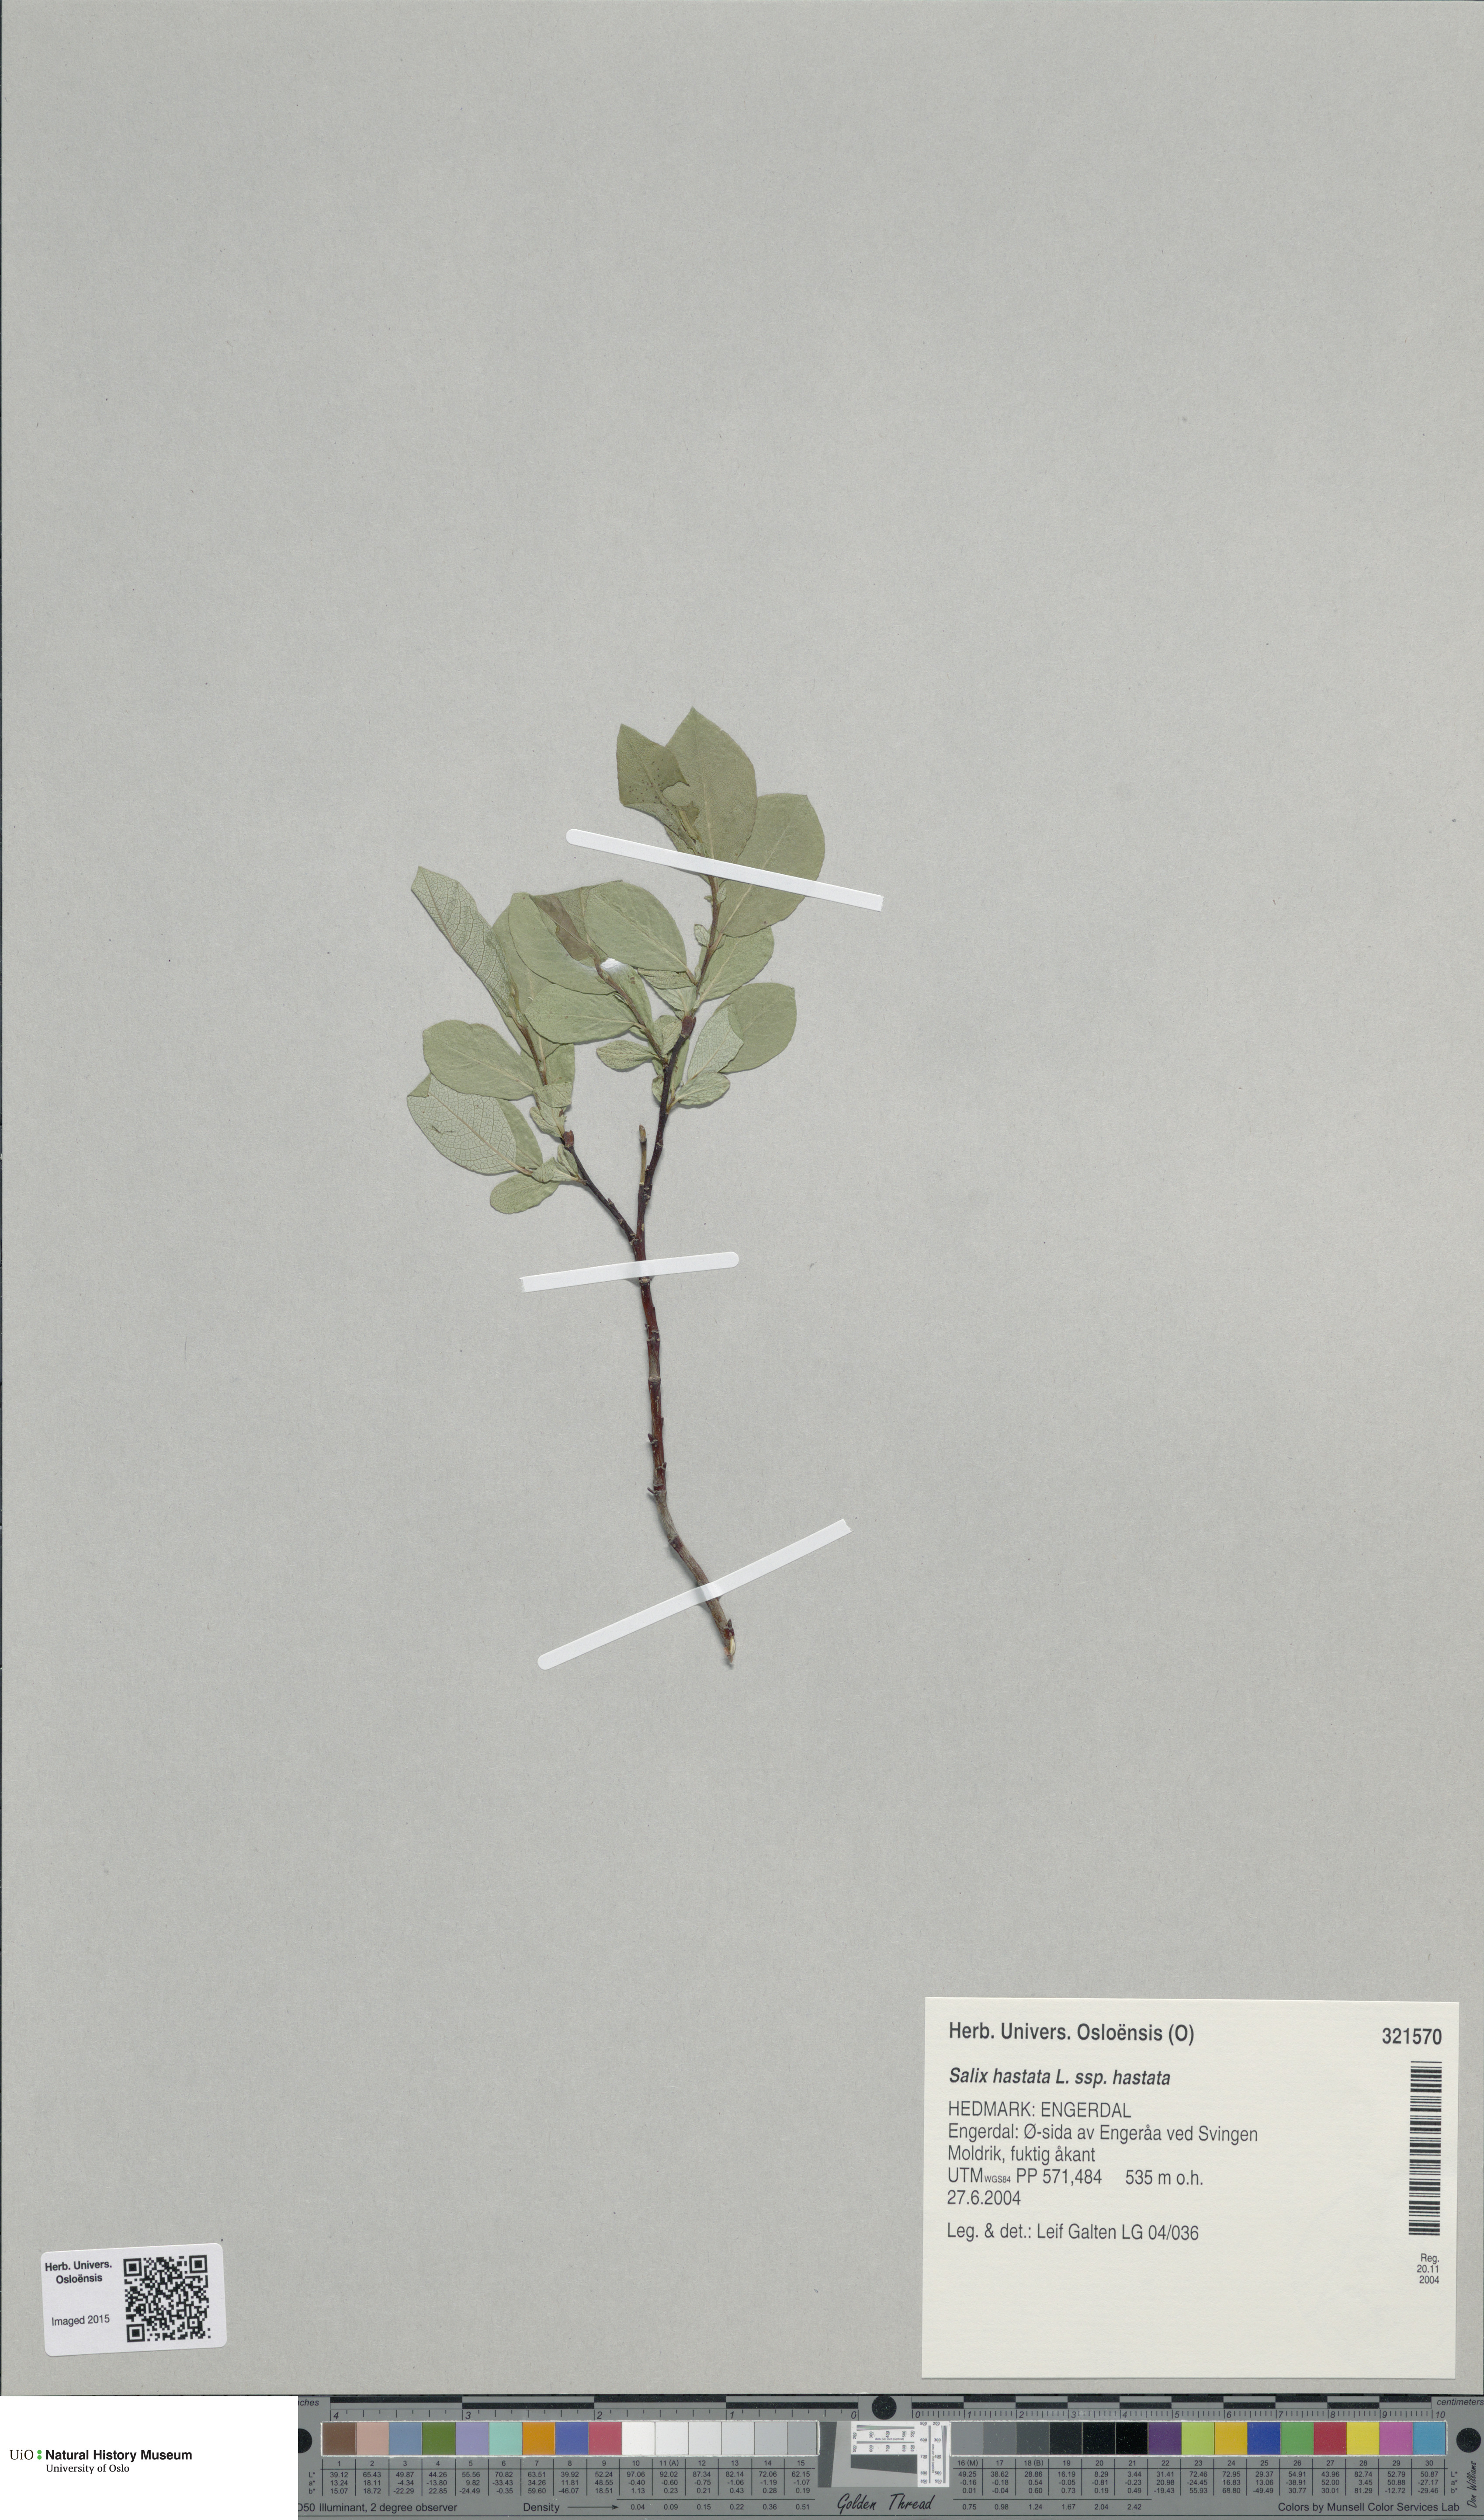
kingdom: Plantae
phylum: Tracheophyta
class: Magnoliopsida
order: Malpighiales
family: Salicaceae
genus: Salix
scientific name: Salix hastata
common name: Halberd willow
